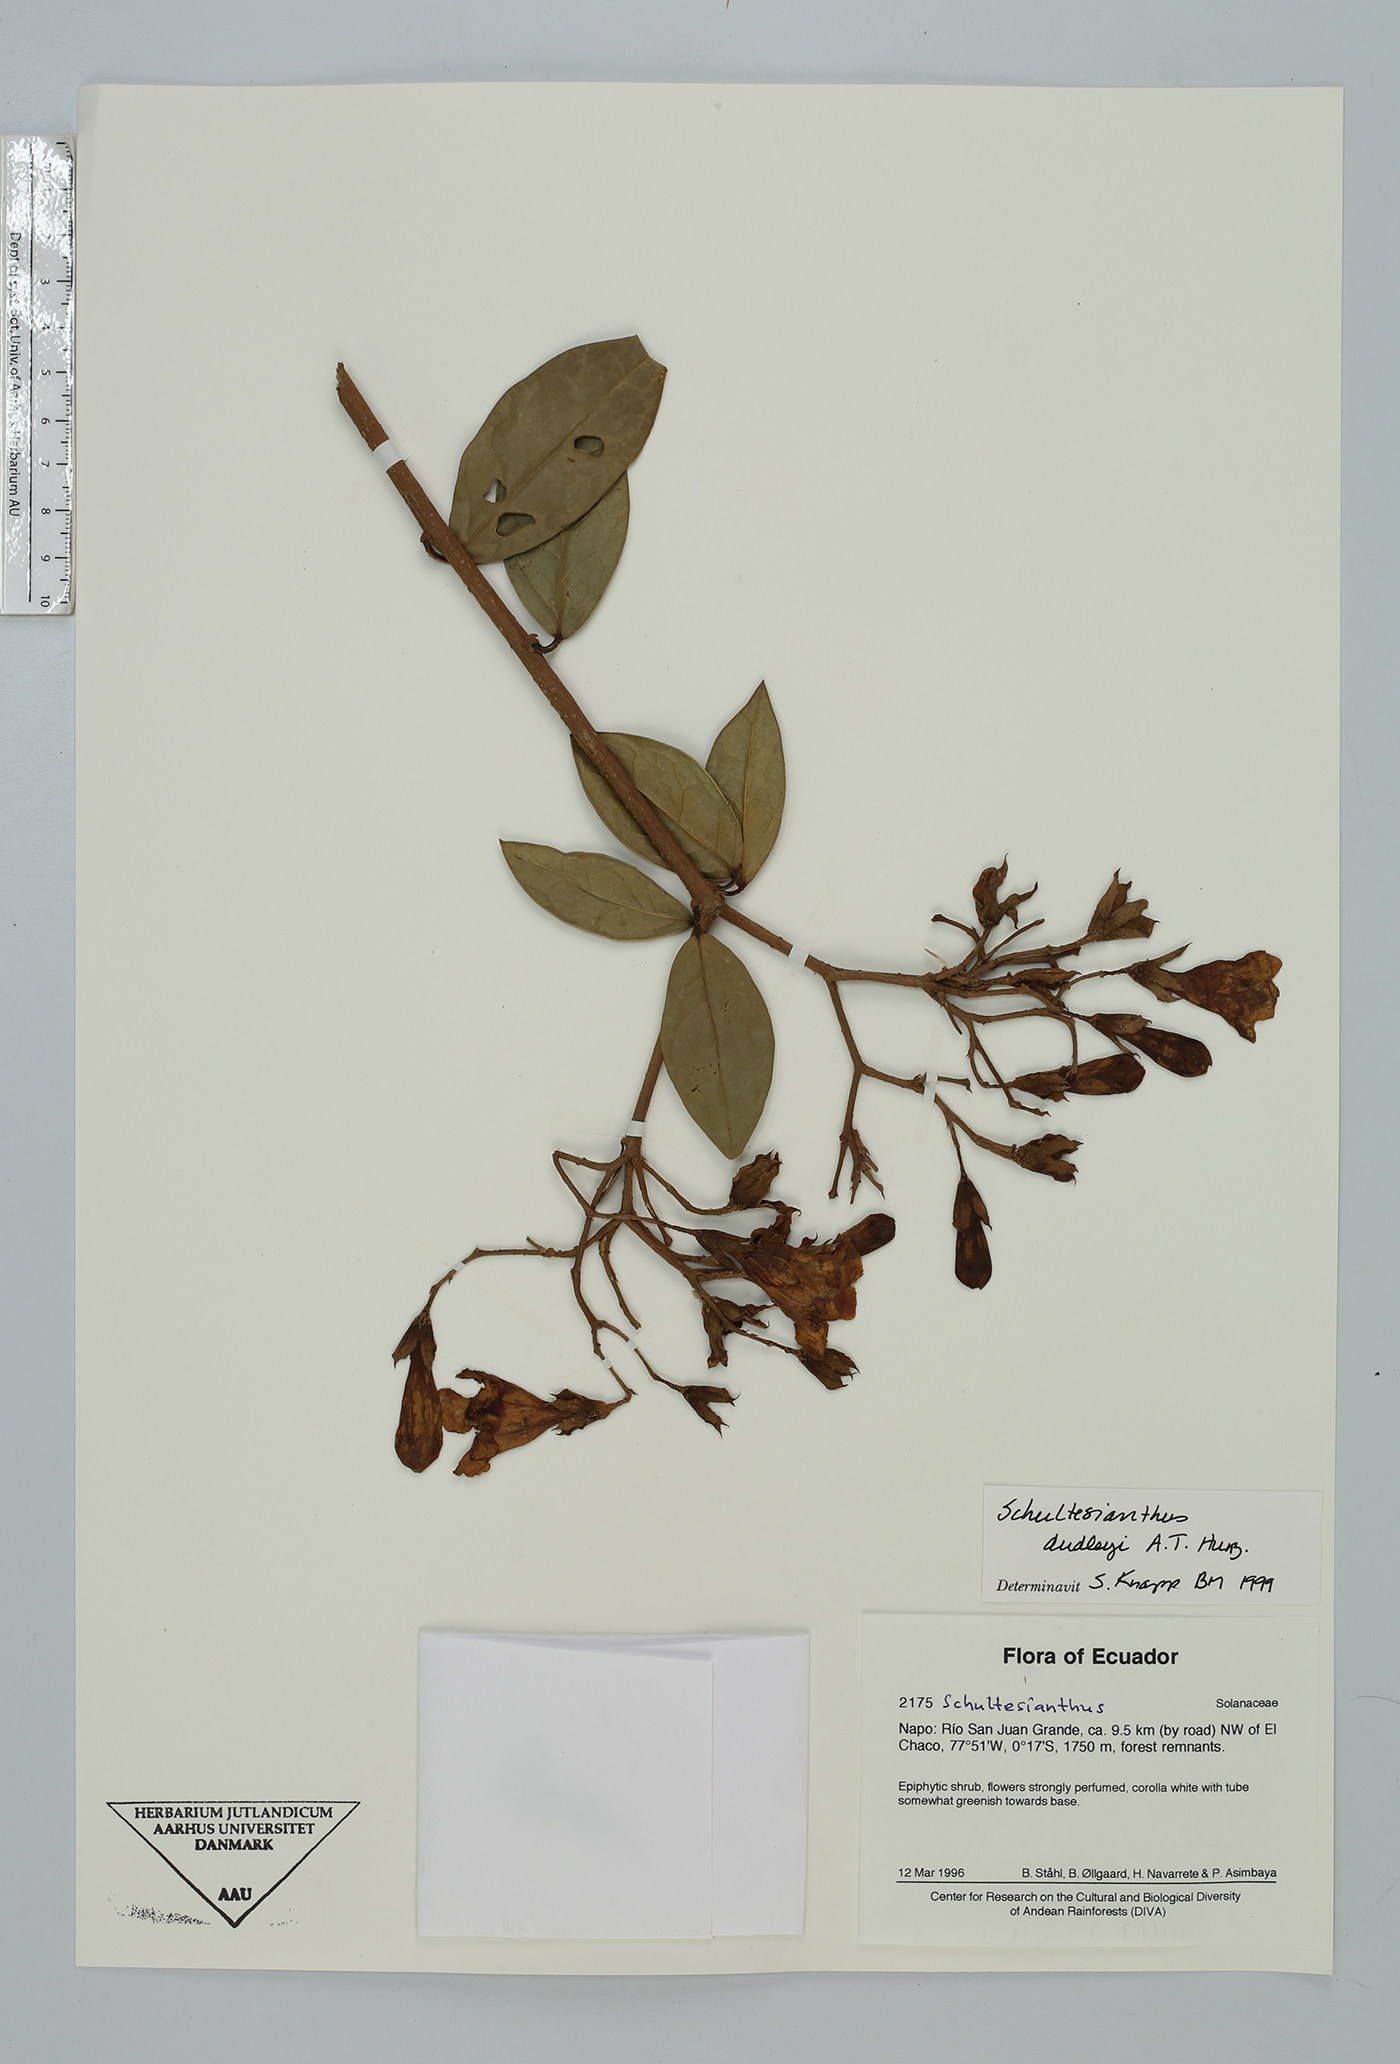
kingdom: Plantae
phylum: Tracheophyta
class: Magnoliopsida
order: Solanales
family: Solanaceae
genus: Schultesianthus
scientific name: Schultesianthus leucanthus
